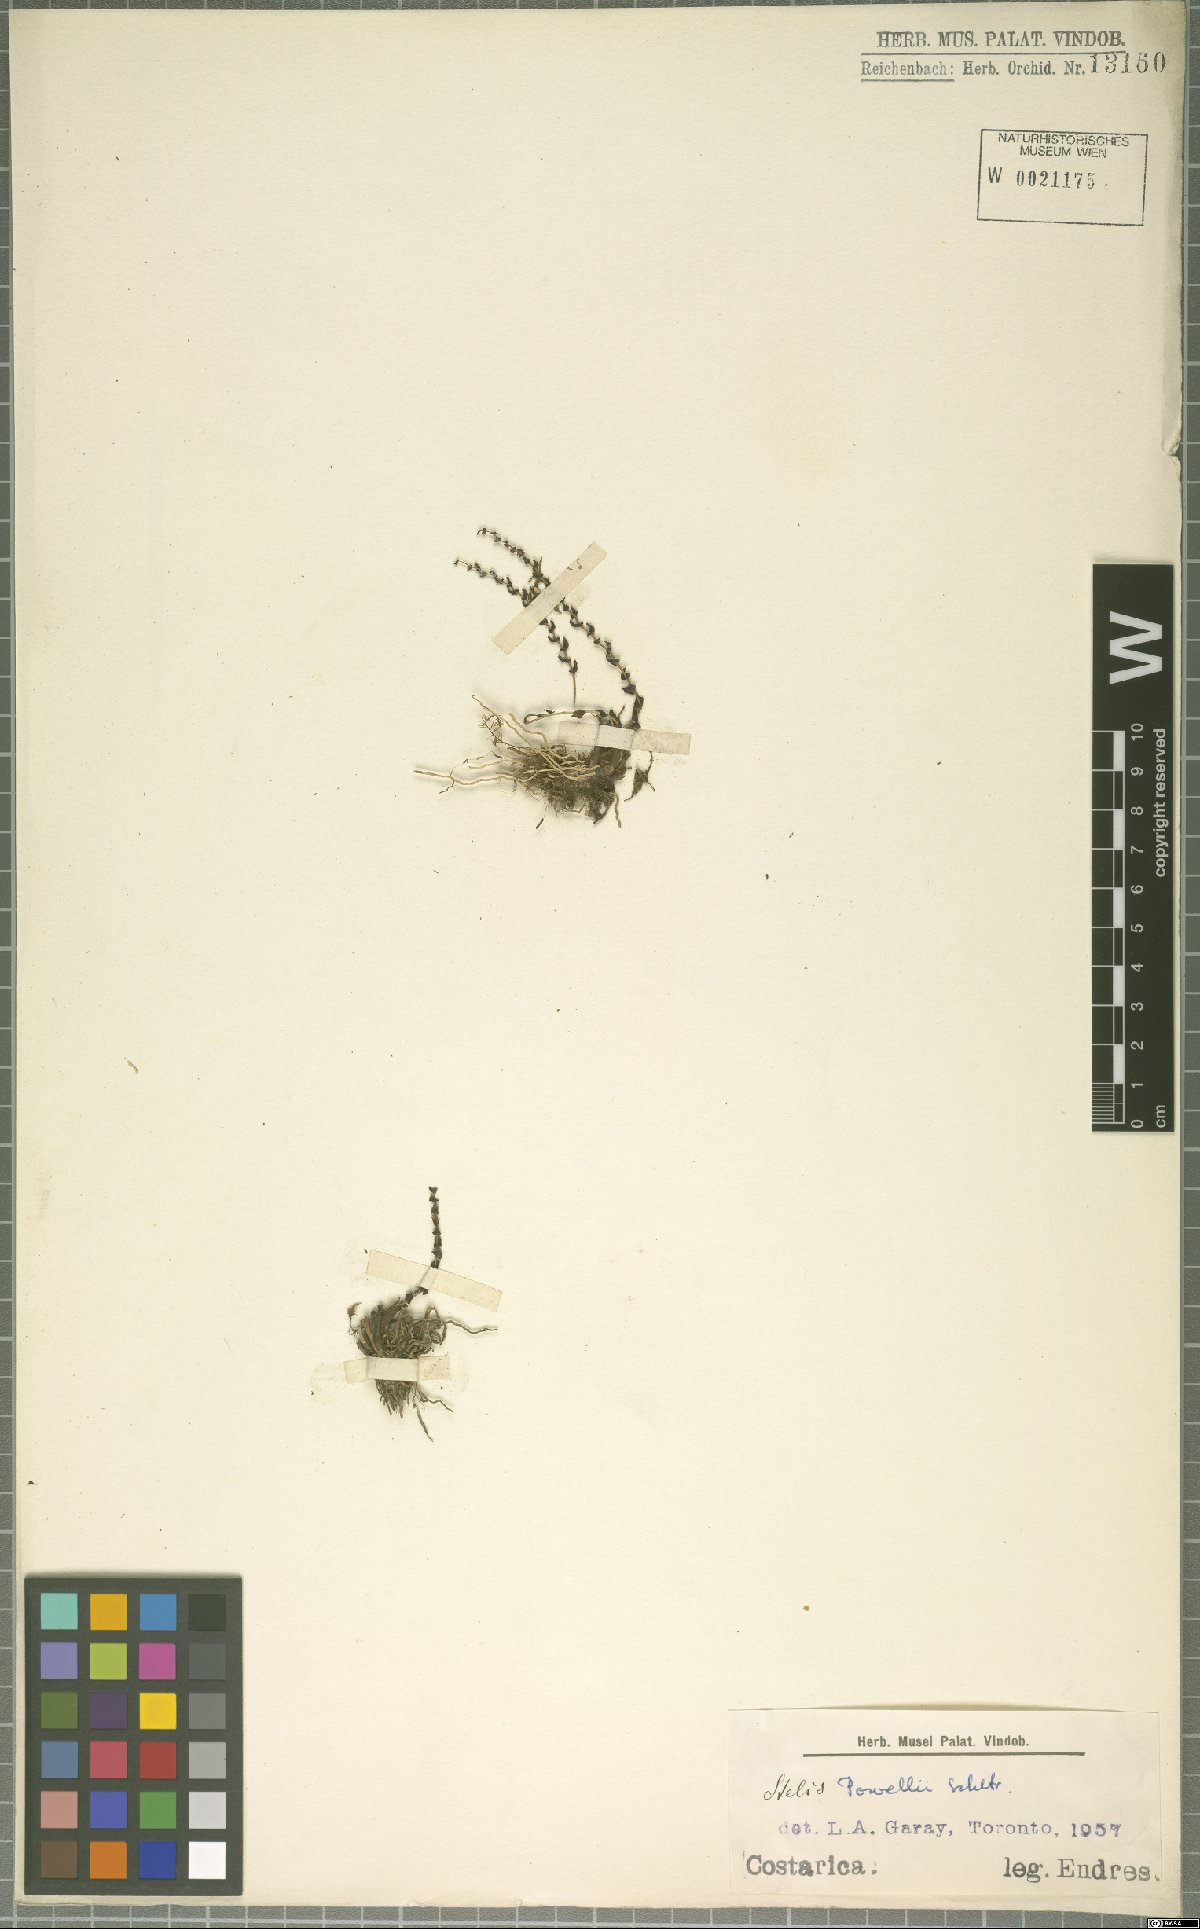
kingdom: Plantae
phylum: Tracheophyta
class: Liliopsida
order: Asparagales
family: Orchidaceae
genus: Stelis
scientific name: Stelis powellii
